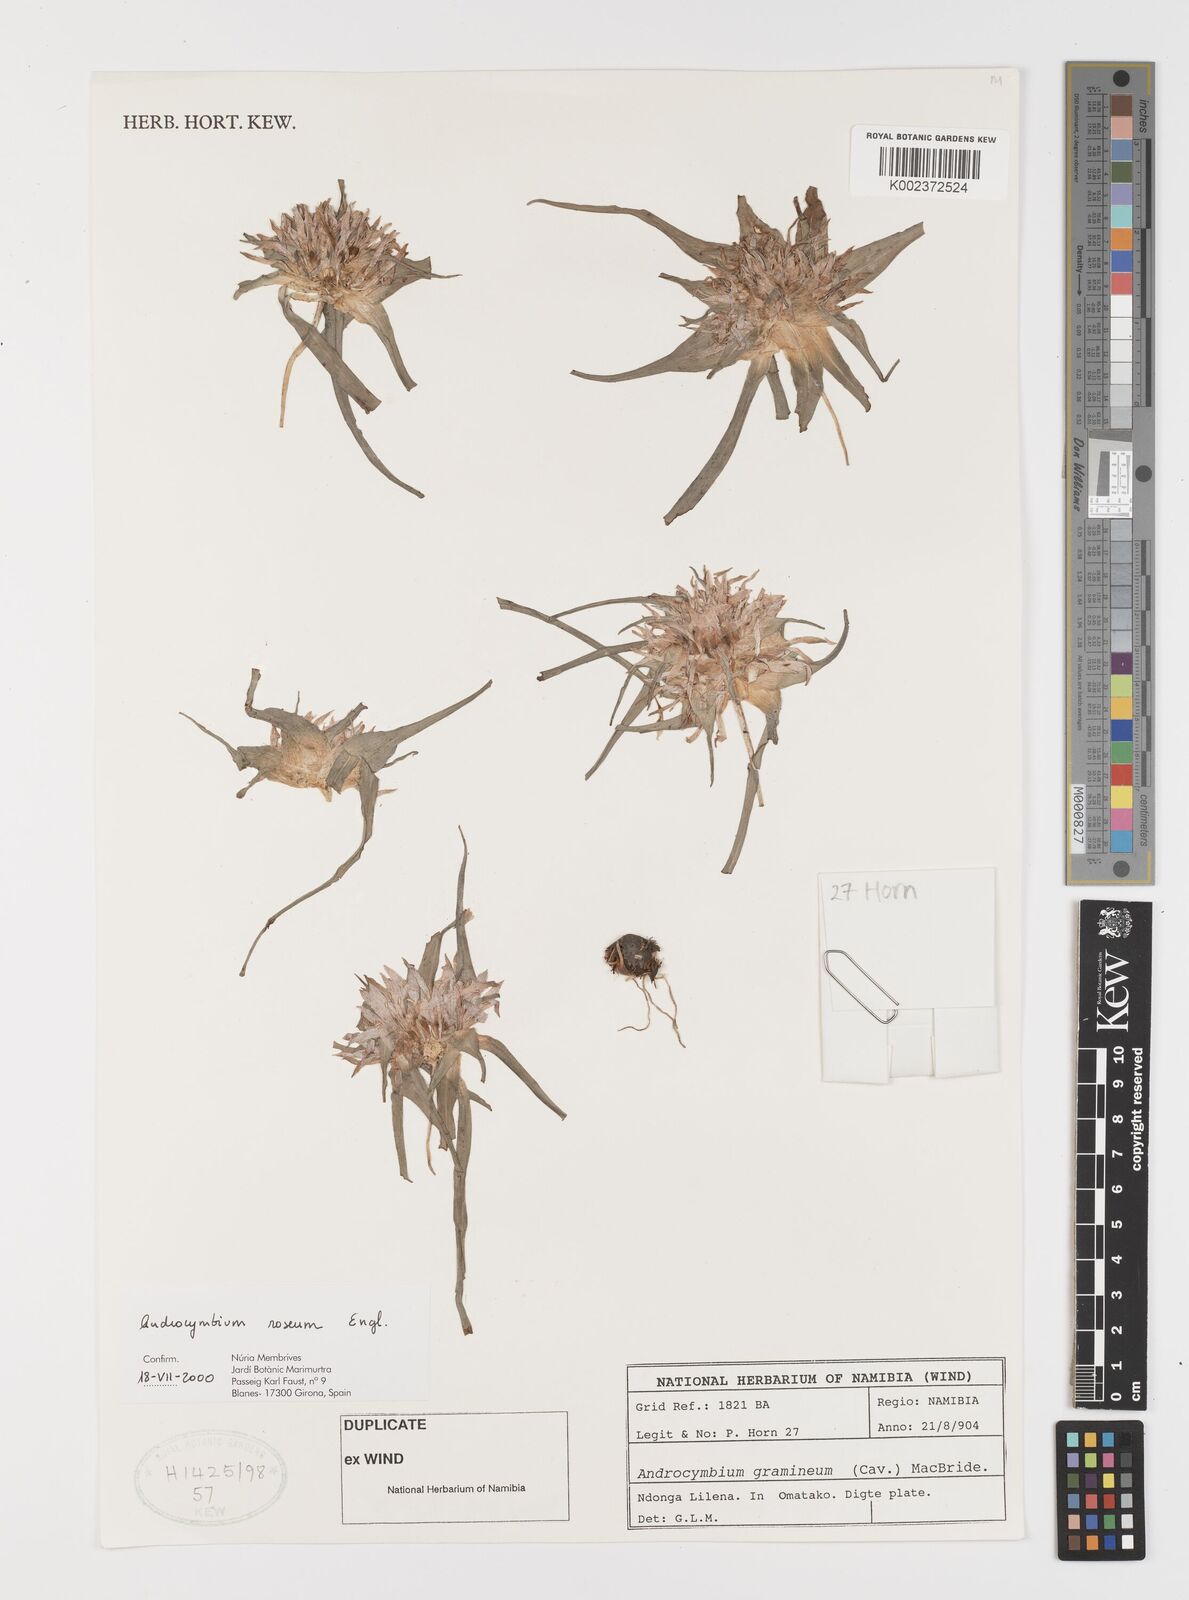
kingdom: Plantae
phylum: Tracheophyta
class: Liliopsida
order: Liliales
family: Colchicaceae
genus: Colchicum
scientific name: Colchicum roseum
